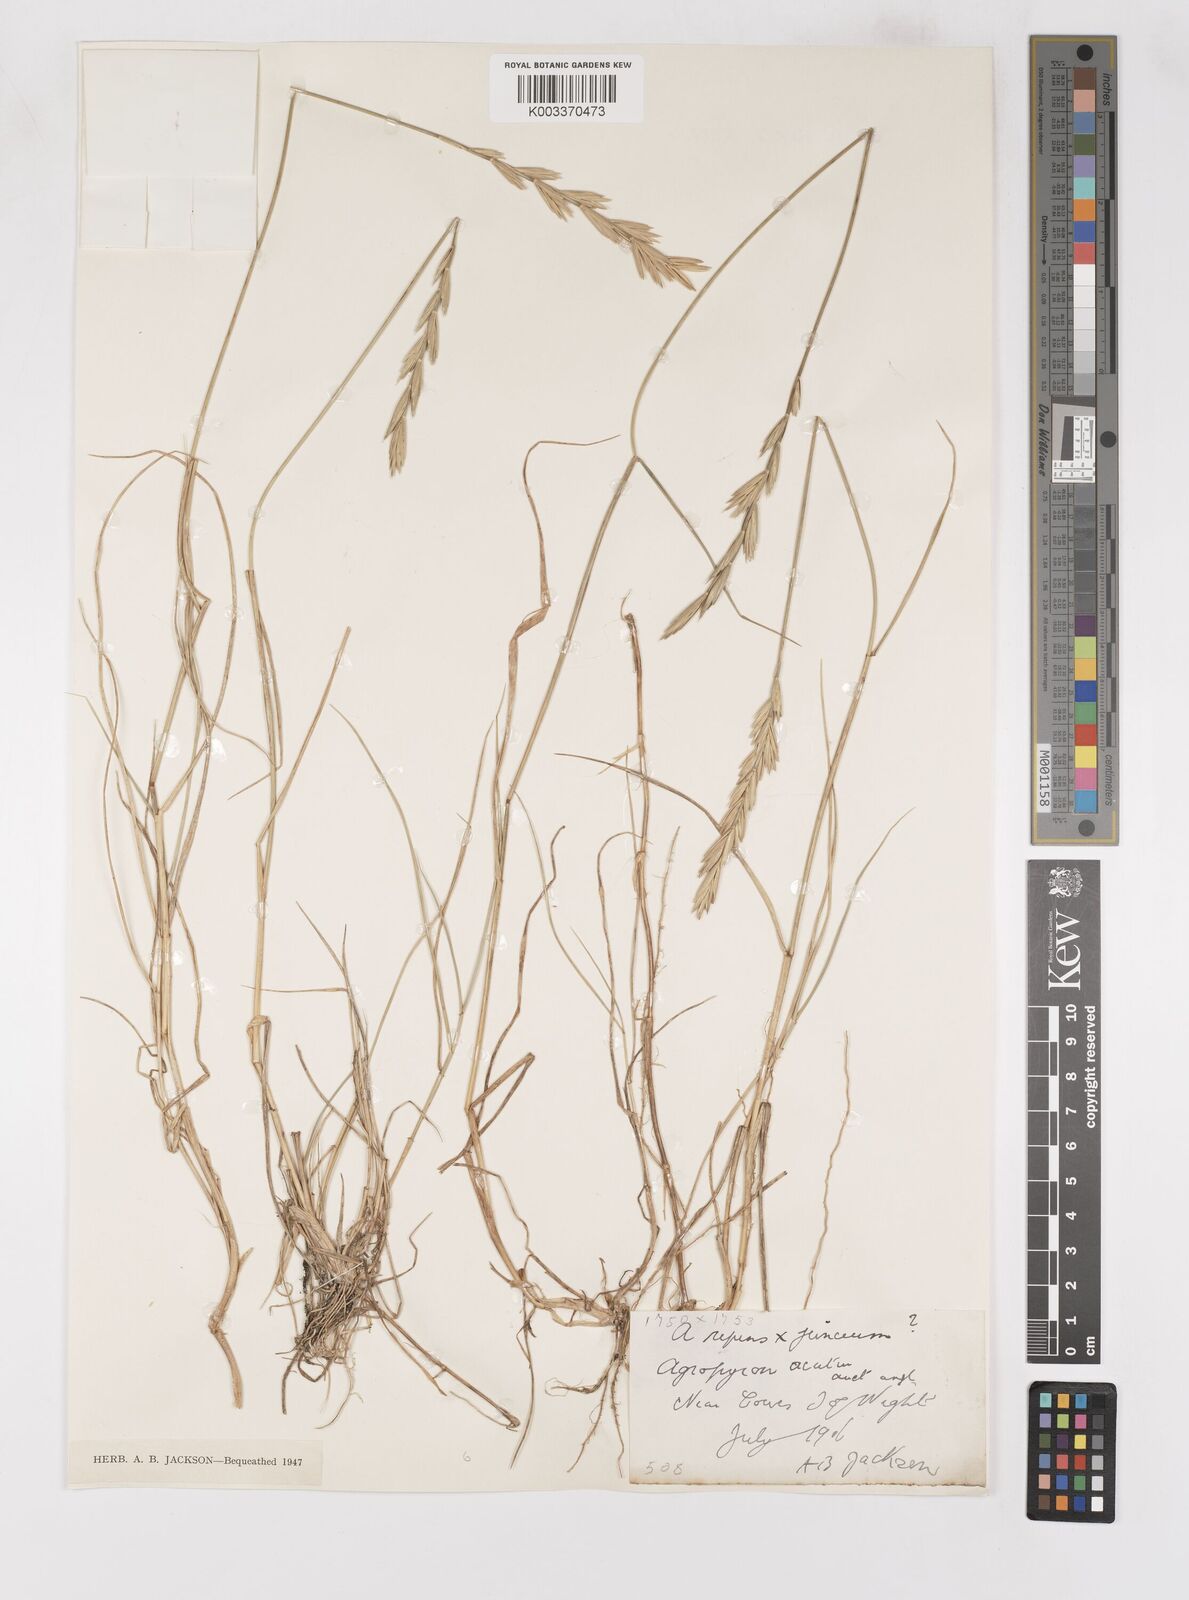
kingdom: Plantae
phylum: Tracheophyta
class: Liliopsida
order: Poales
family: Poaceae
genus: Thinoelymus
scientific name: Thinoelymus obtusiusculus
